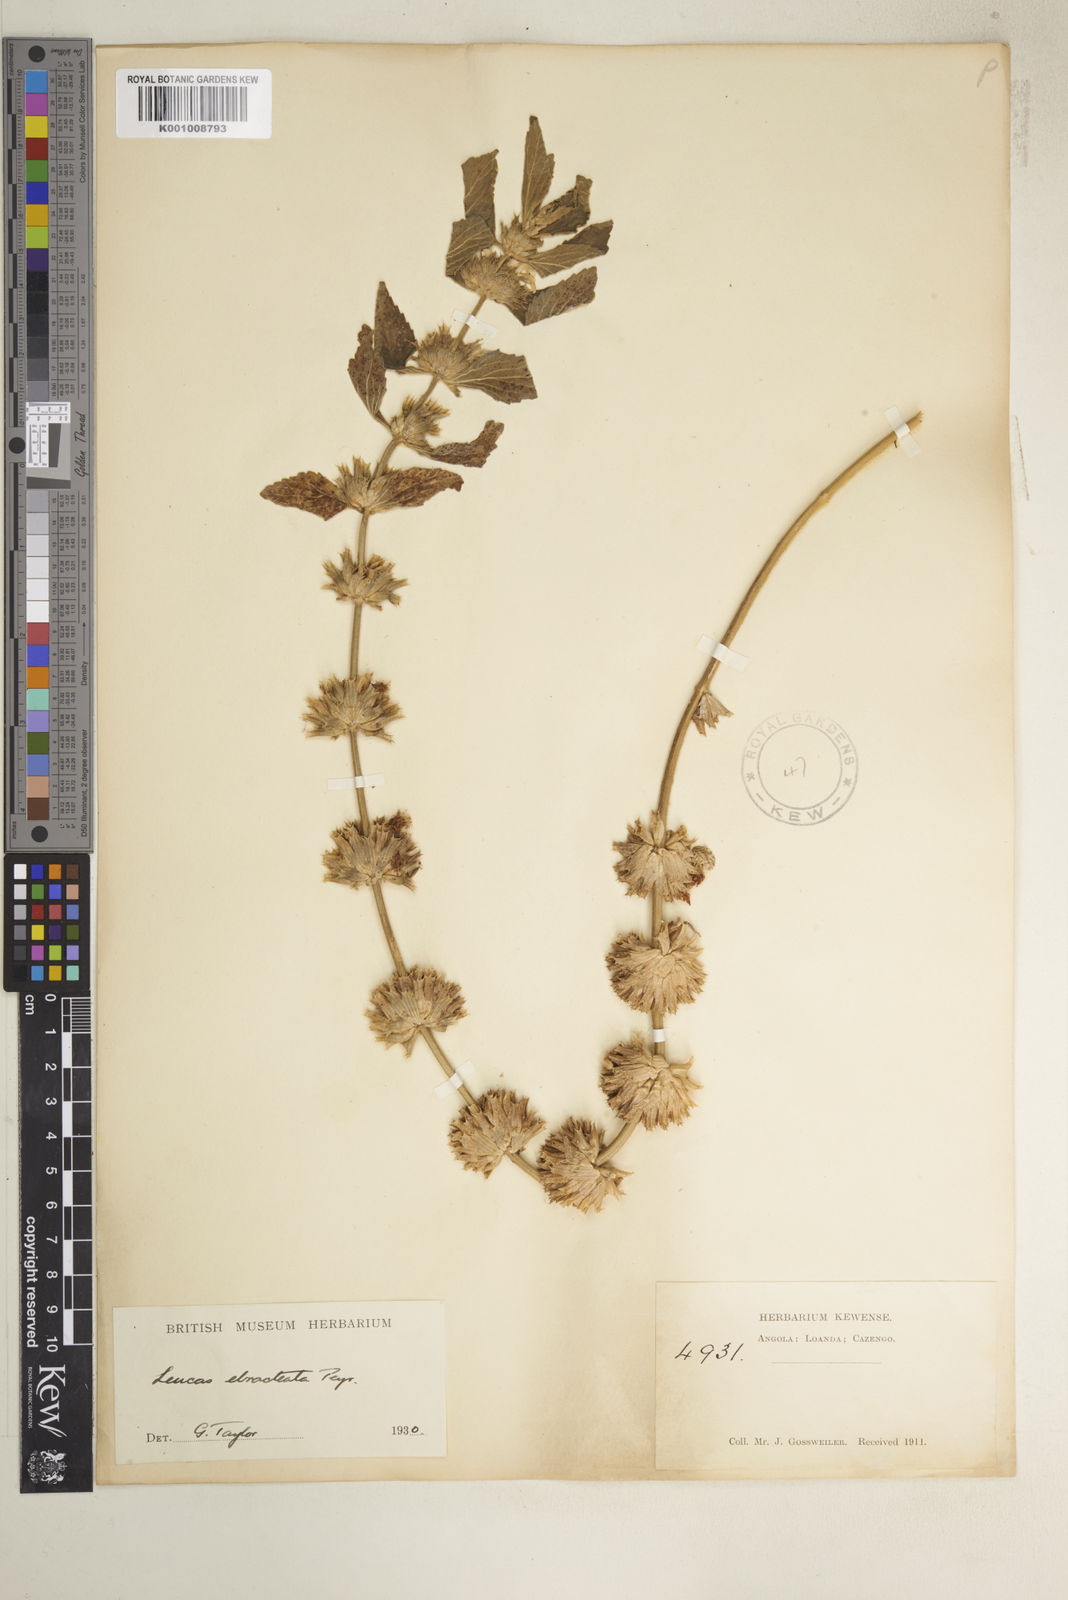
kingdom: Plantae
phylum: Tracheophyta
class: Magnoliopsida
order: Lamiales
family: Lamiaceae
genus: Leucas
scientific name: Leucas ebracteata
